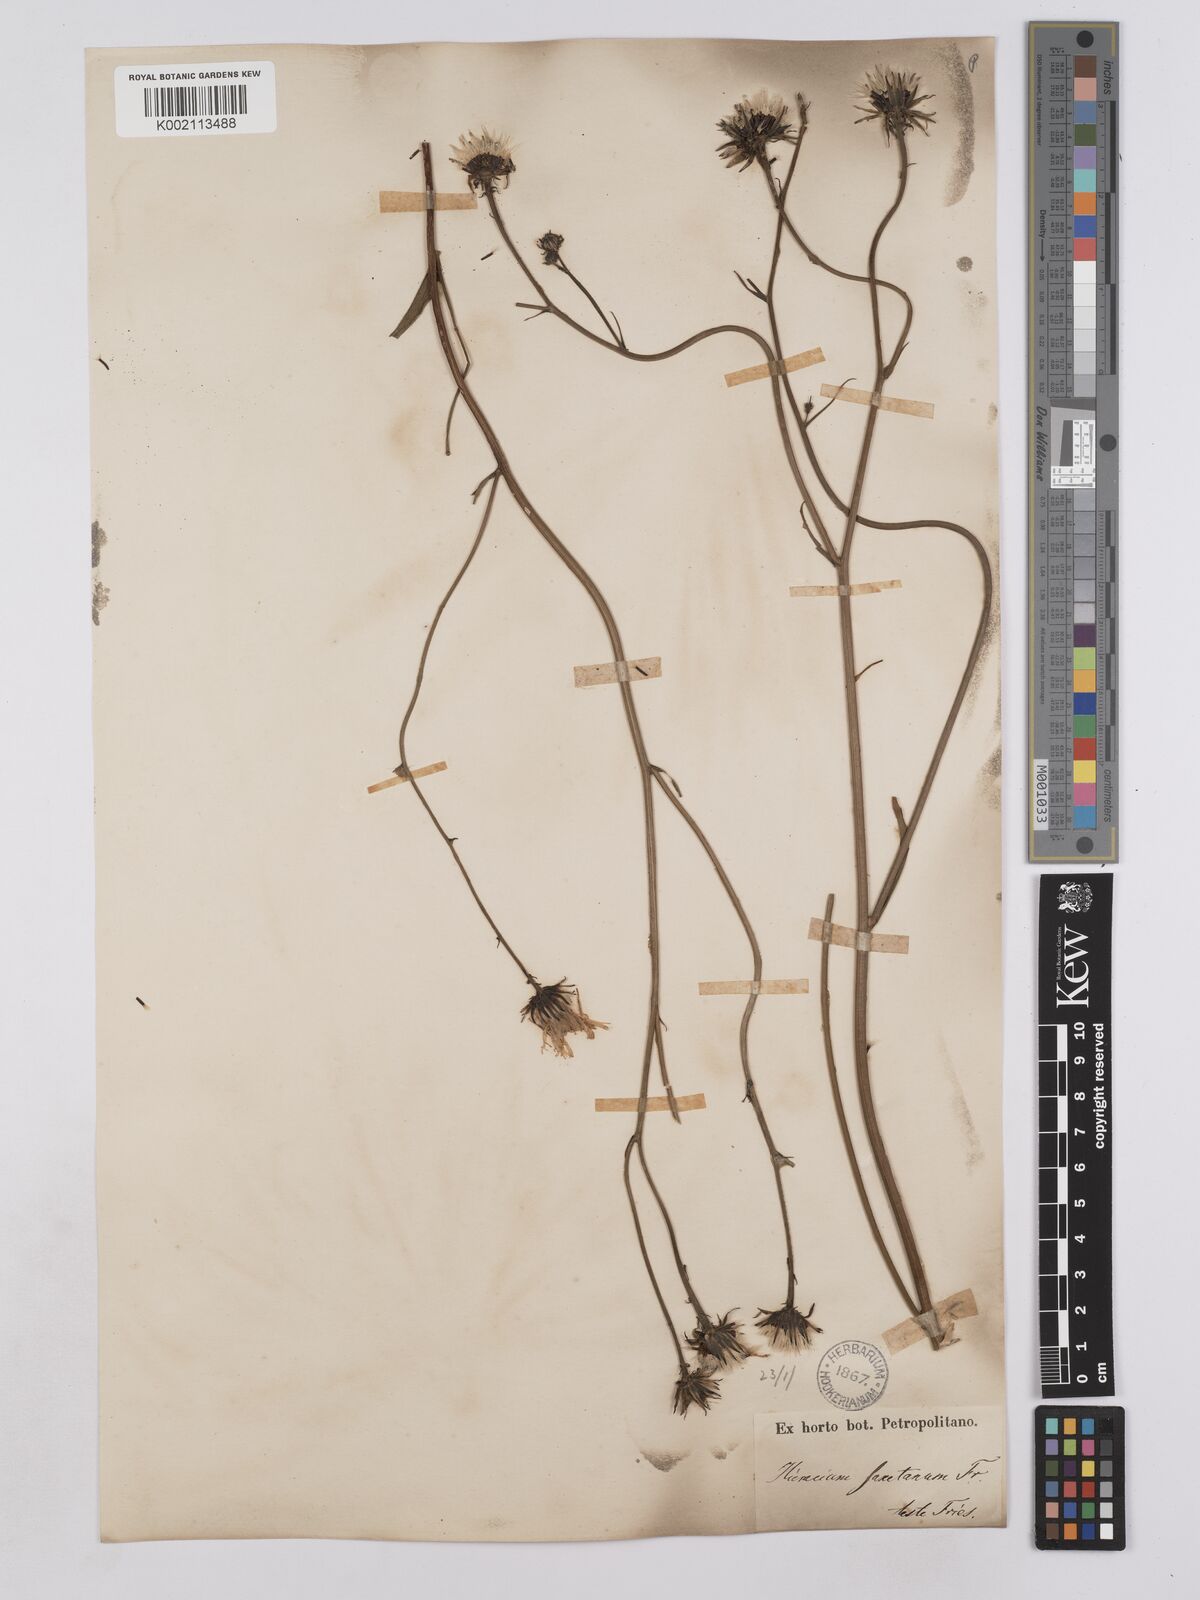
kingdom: Plantae
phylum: Tracheophyta
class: Magnoliopsida
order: Asterales
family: Asteraceae
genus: Hieracium
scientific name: Hieracium saxatile
